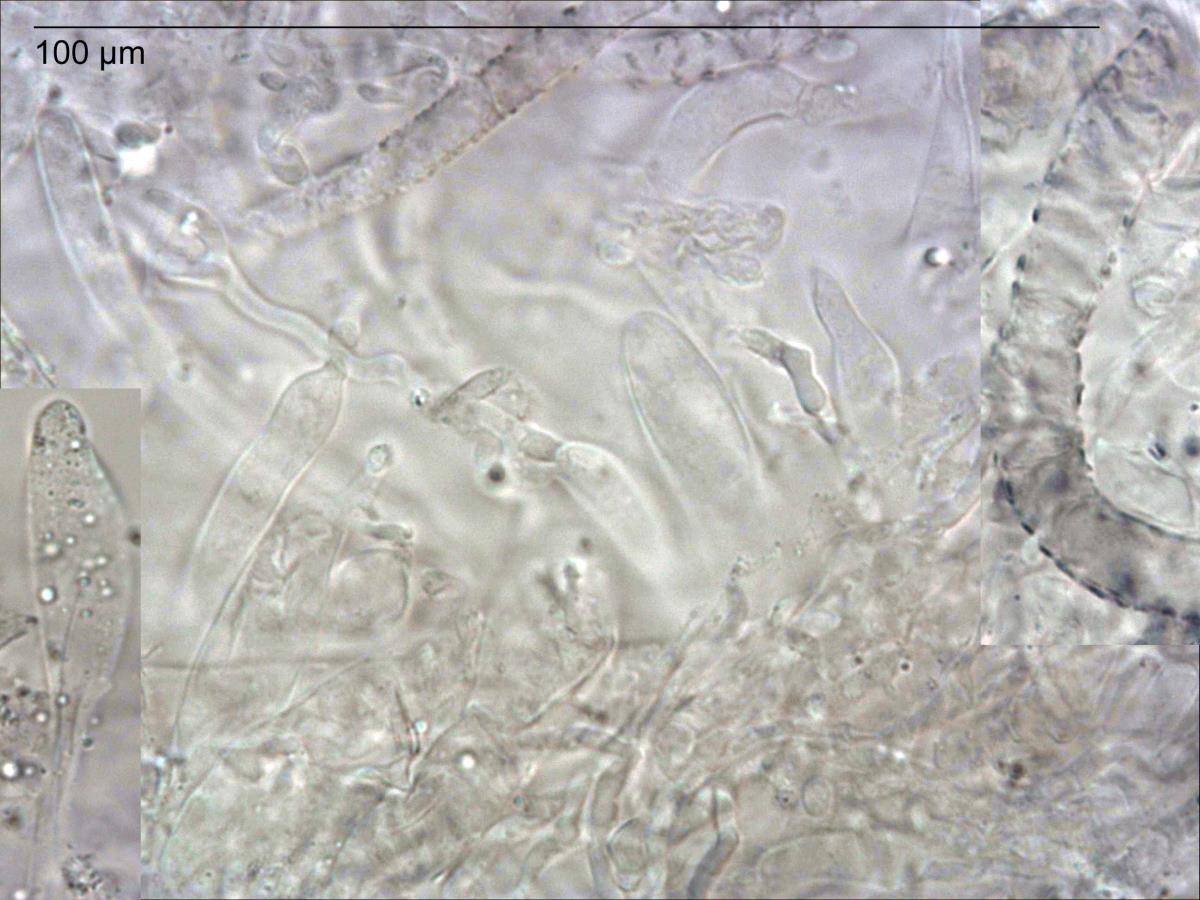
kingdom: Fungi
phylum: Basidiomycota
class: Agaricomycetes
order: Agaricales
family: Omphalotaceae
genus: Collybiopsis
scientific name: Collybiopsis
